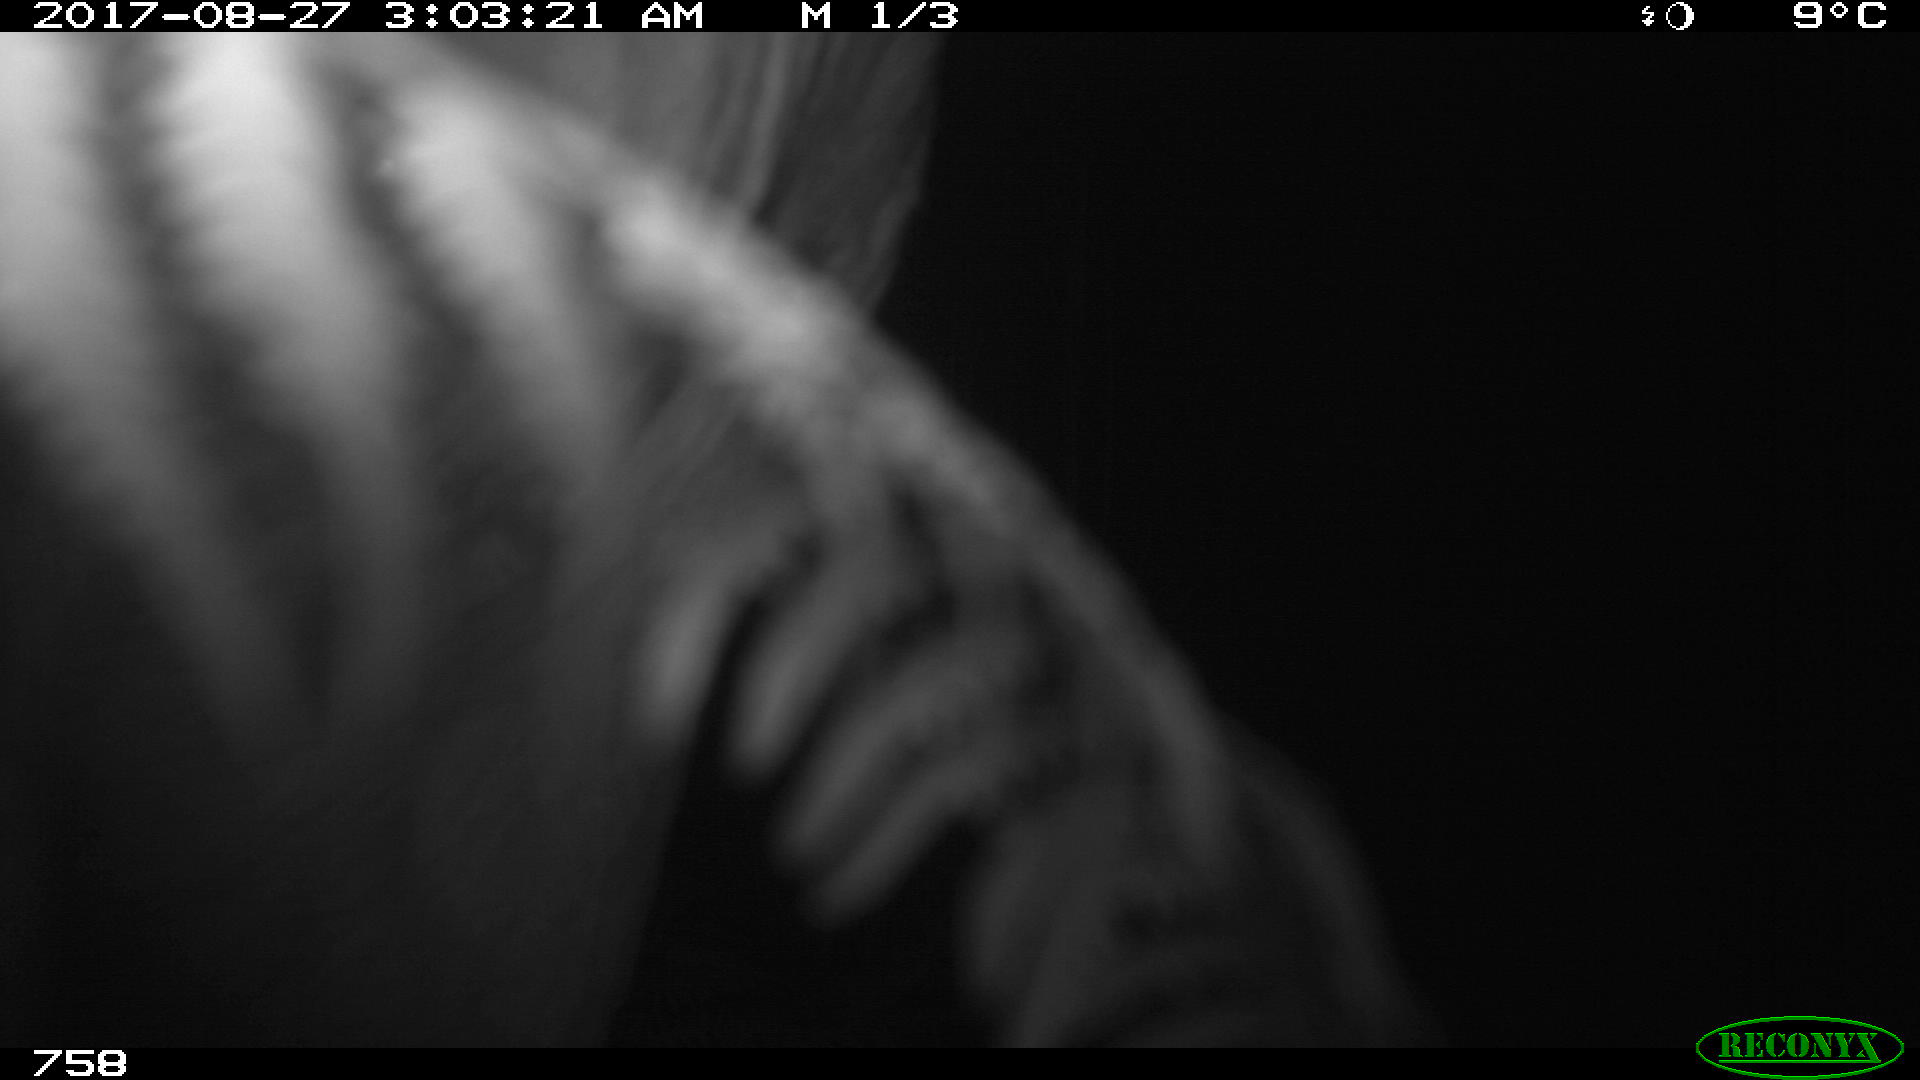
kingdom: Animalia
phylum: Chordata
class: Mammalia
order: Artiodactyla
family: Bovidae
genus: Bos
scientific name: Bos taurus
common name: Domesticated cattle
